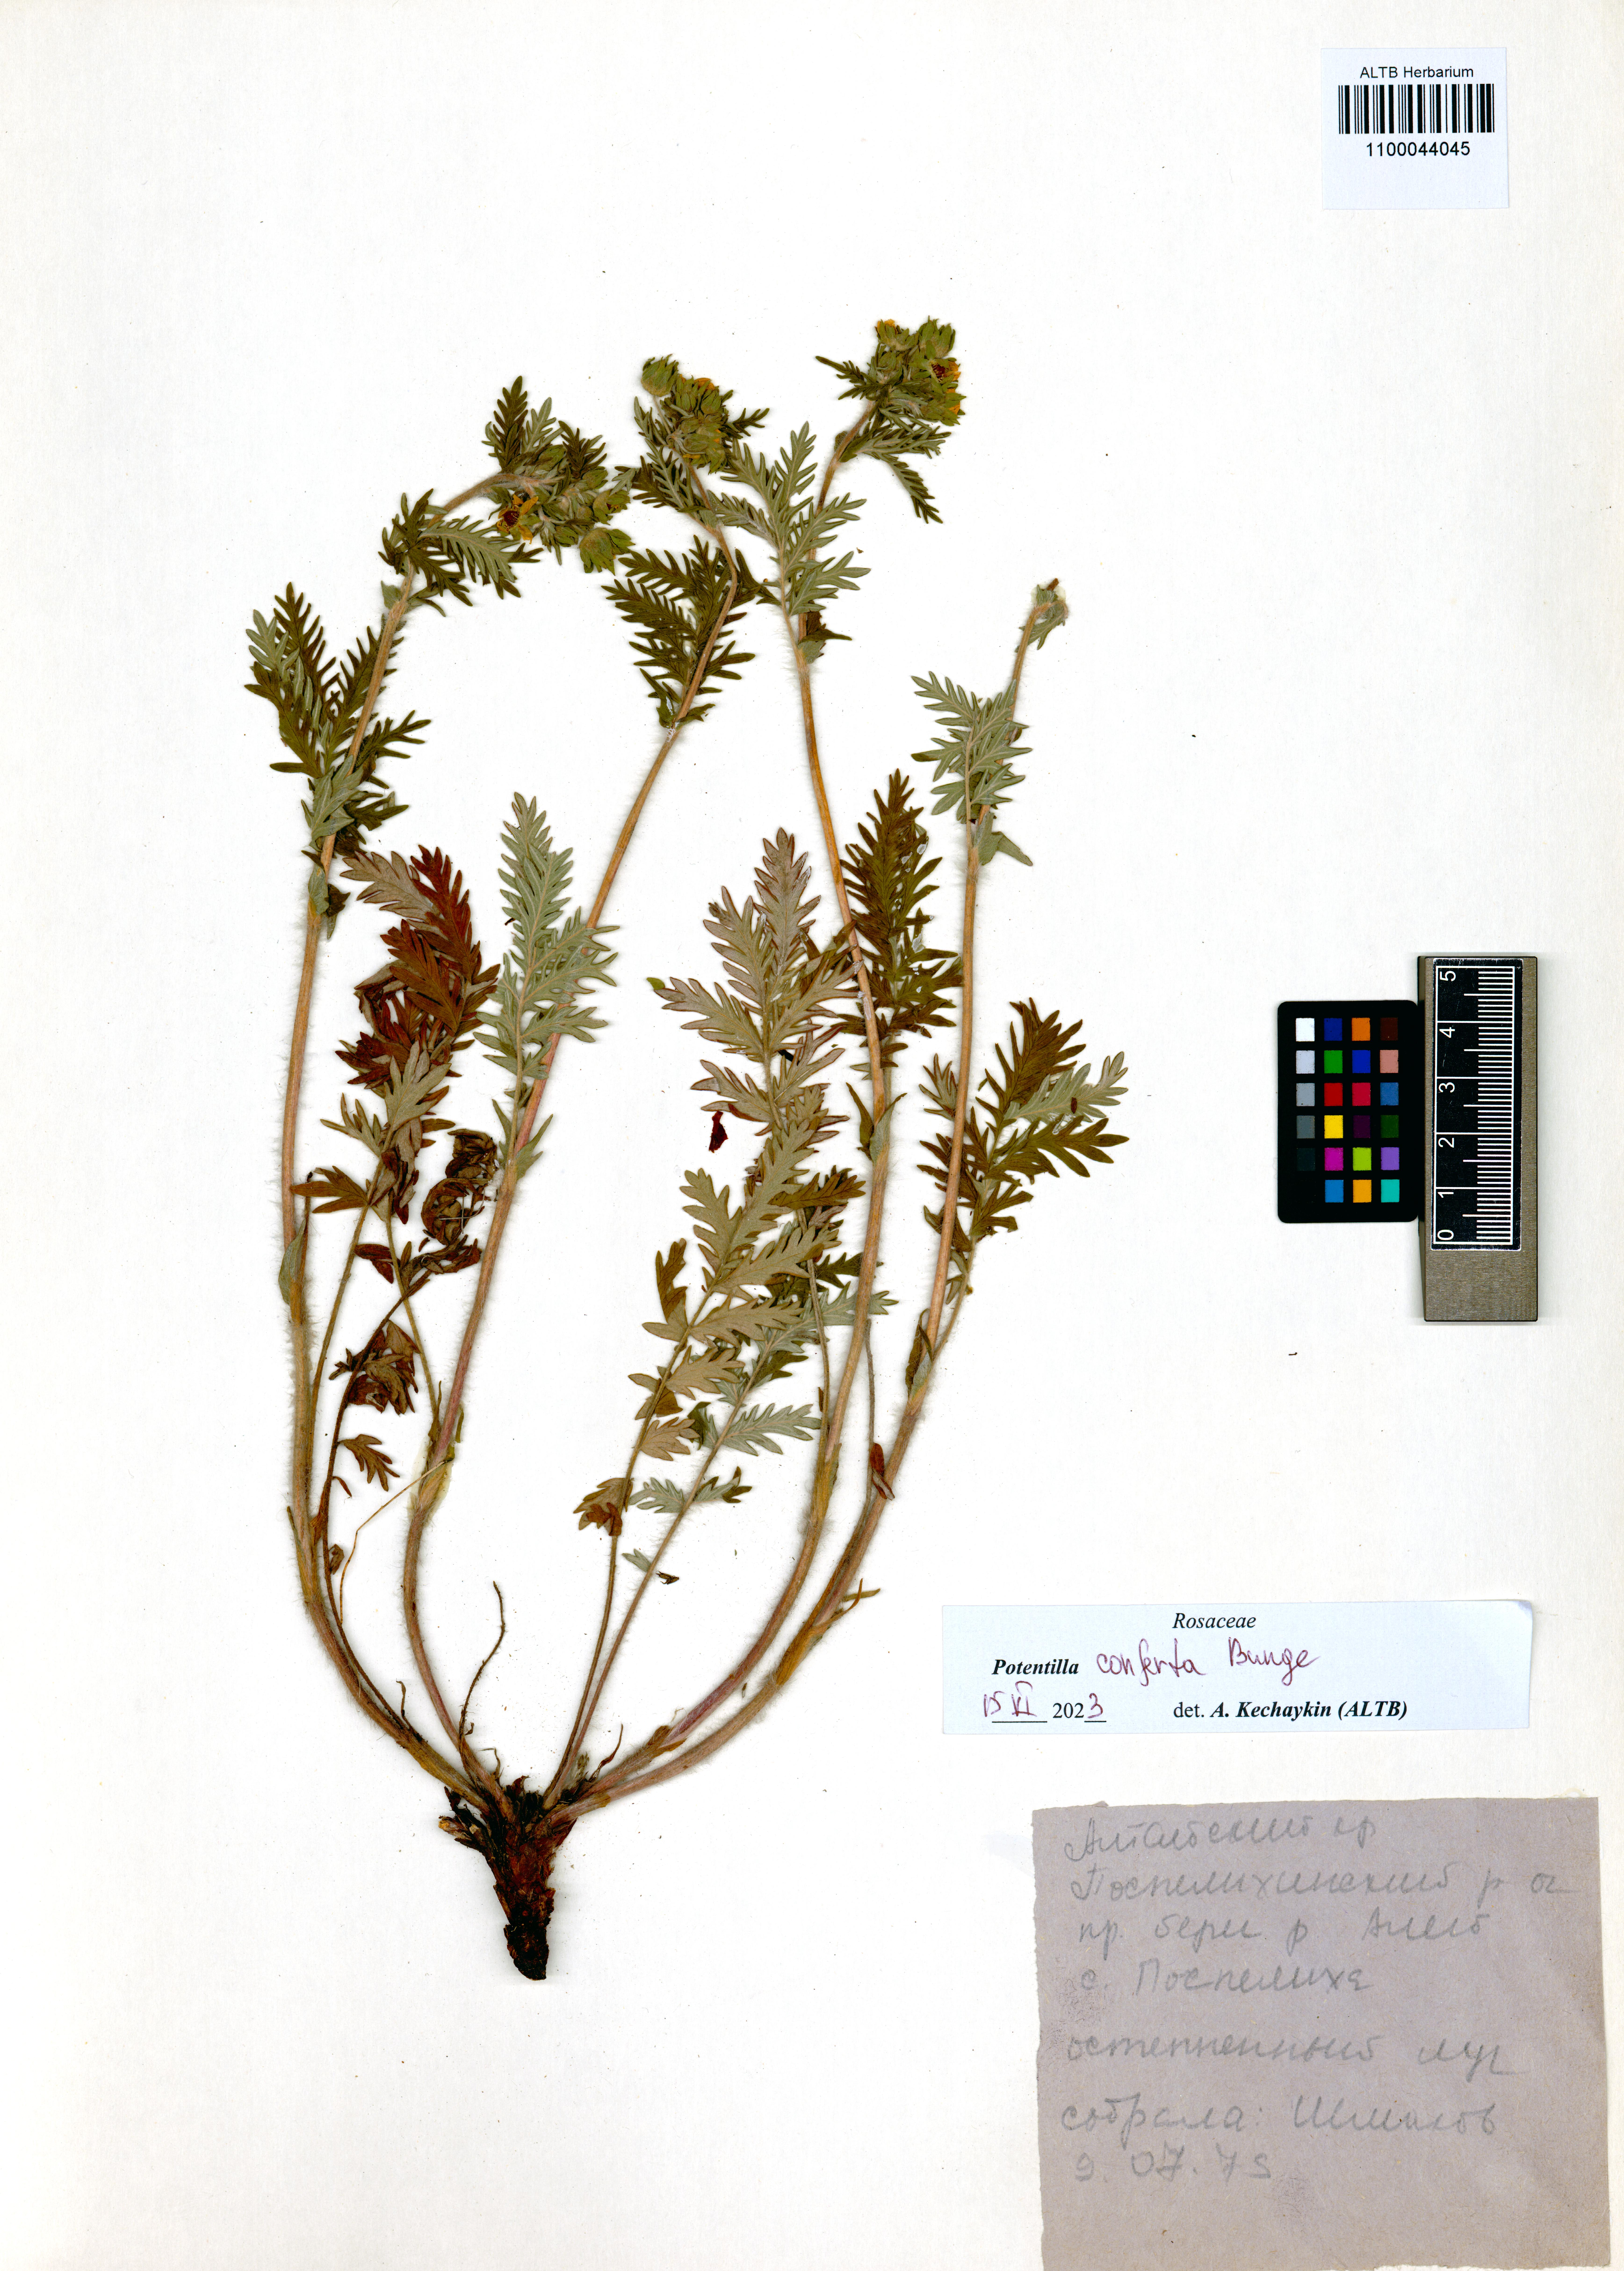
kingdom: Plantae
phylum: Tracheophyta
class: Magnoliopsida
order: Rosales
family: Rosaceae
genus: Potentilla
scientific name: Potentilla conferta
